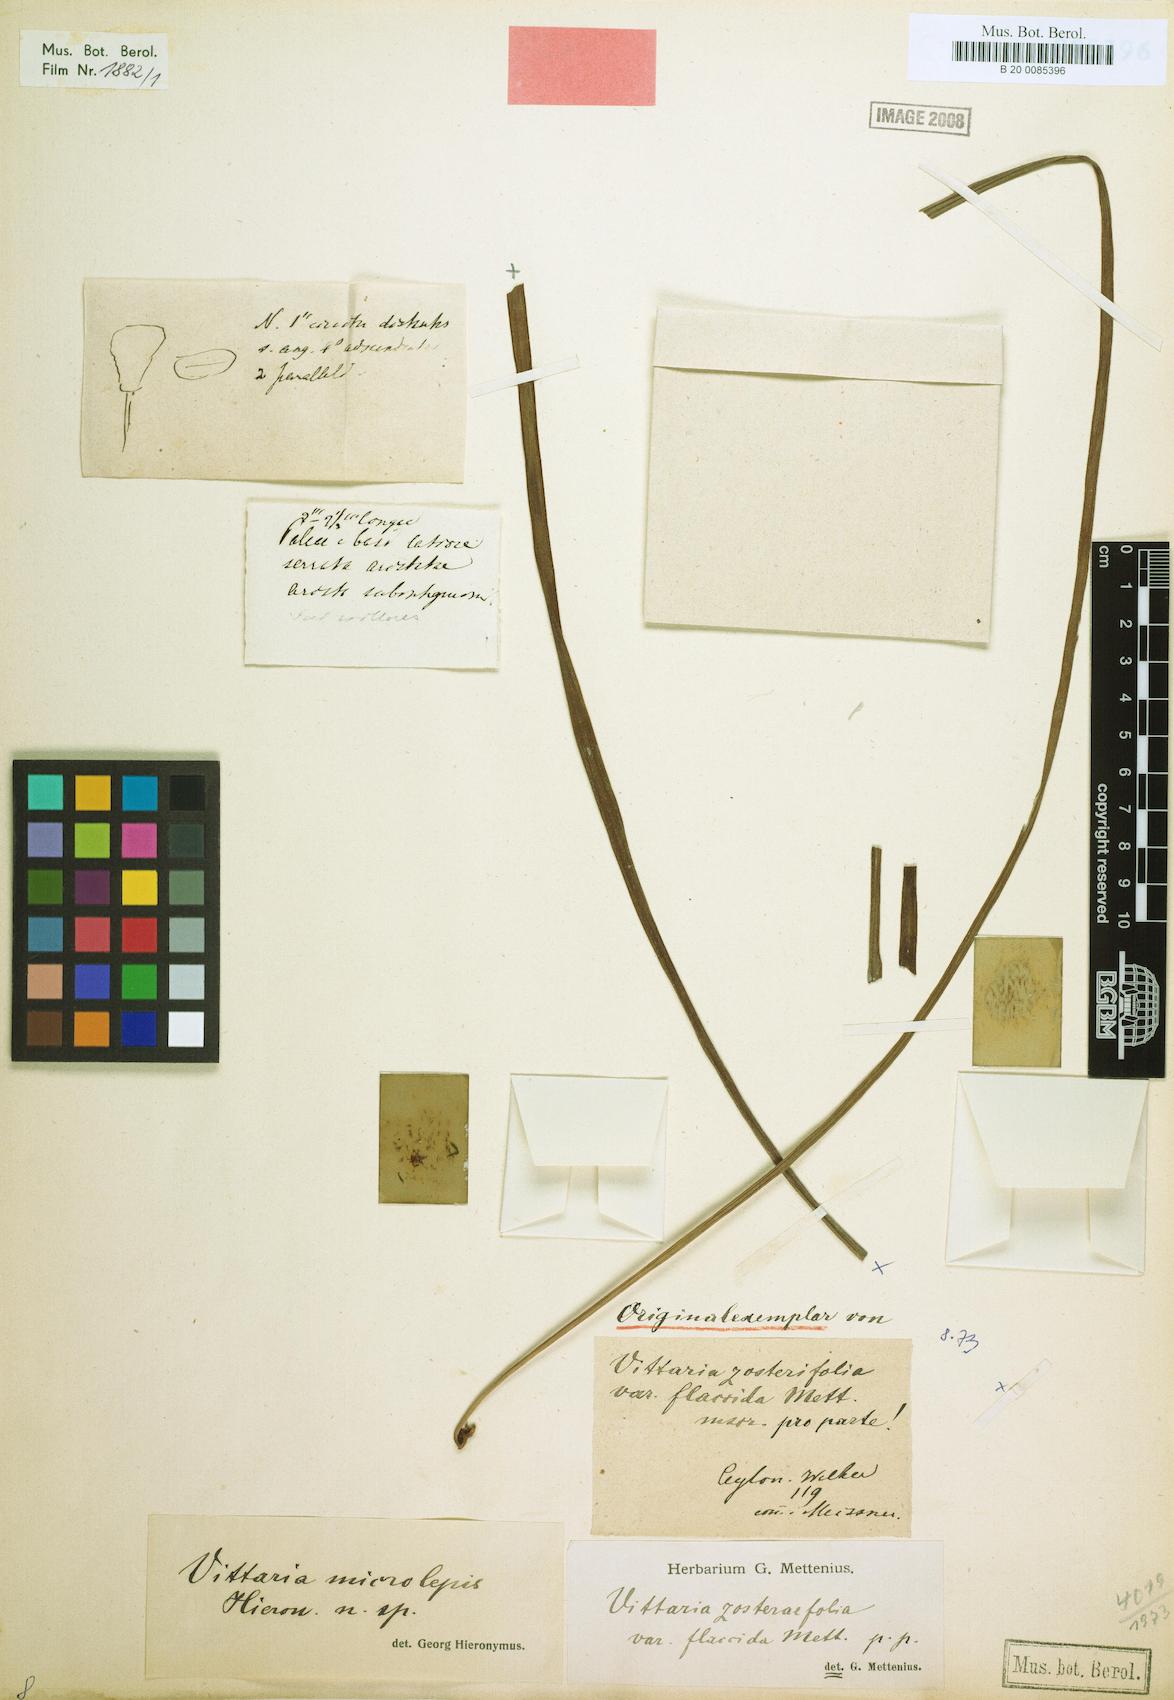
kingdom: Plantae
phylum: Tracheophyta
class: Polypodiopsida
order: Polypodiales
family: Pteridaceae
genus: Haplopteris
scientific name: Haplopteris elongata
